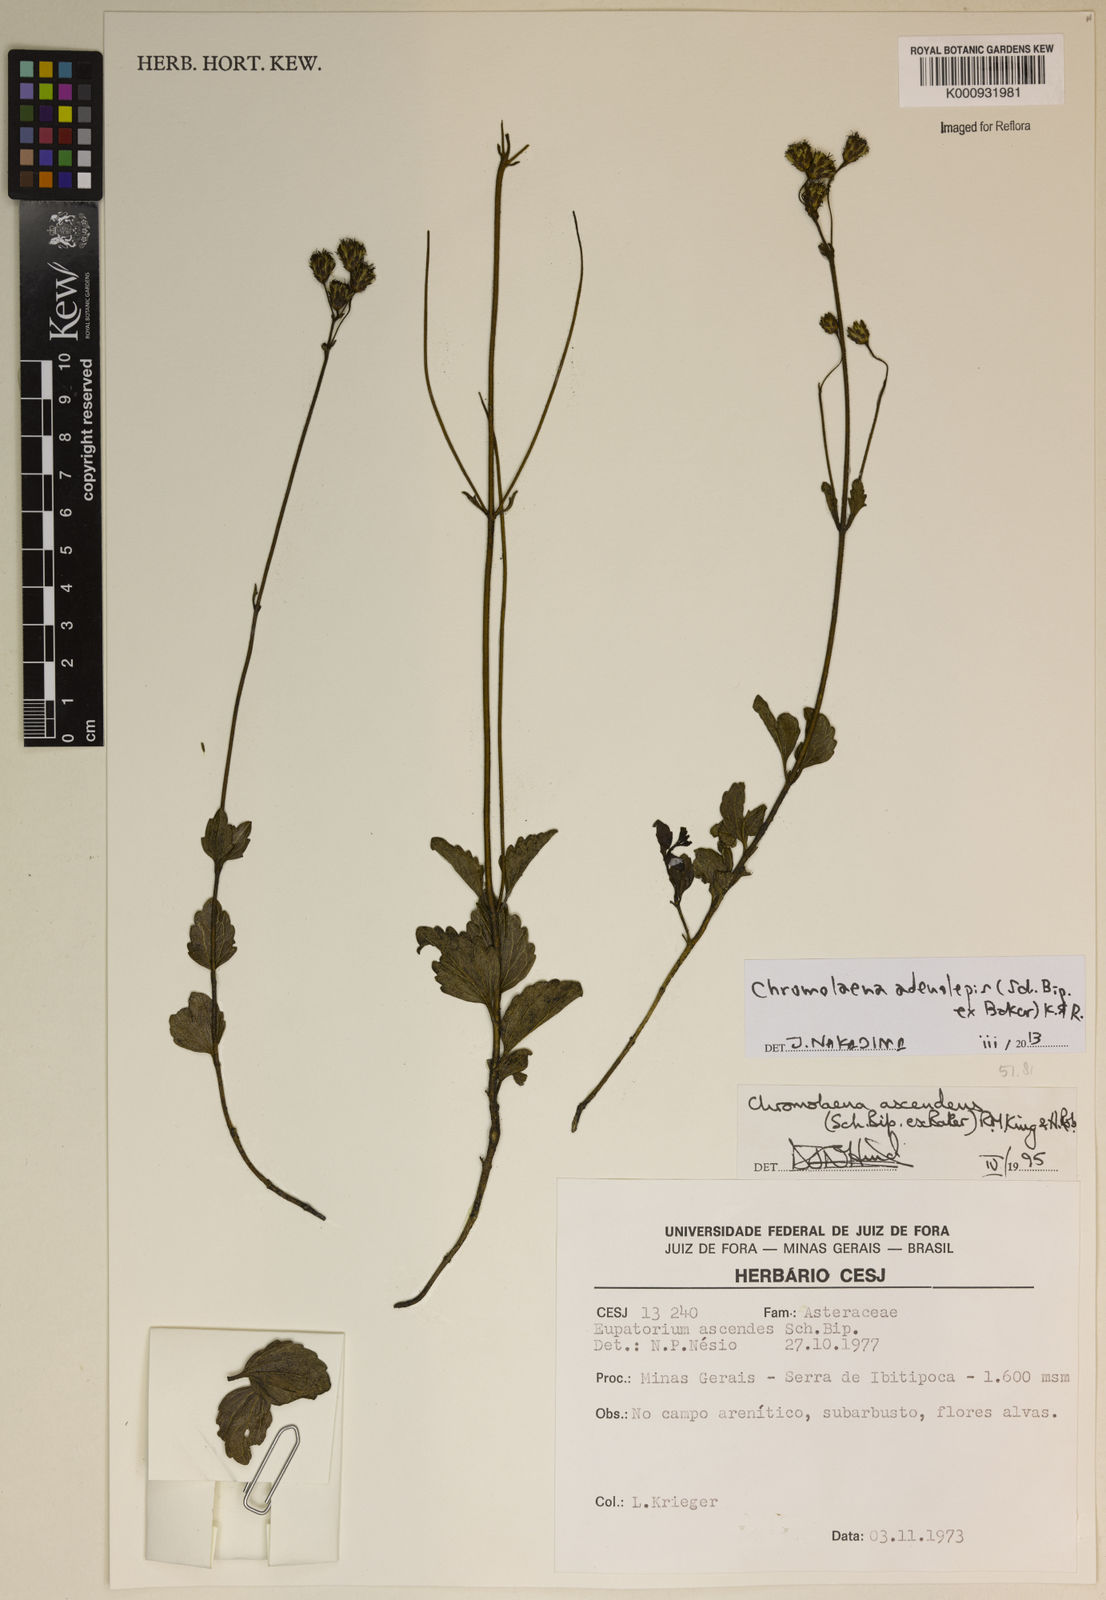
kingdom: Plantae
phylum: Tracheophyta
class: Magnoliopsida
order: Asterales
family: Asteraceae
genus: Chromolaena
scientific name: Chromolaena adenolepis
